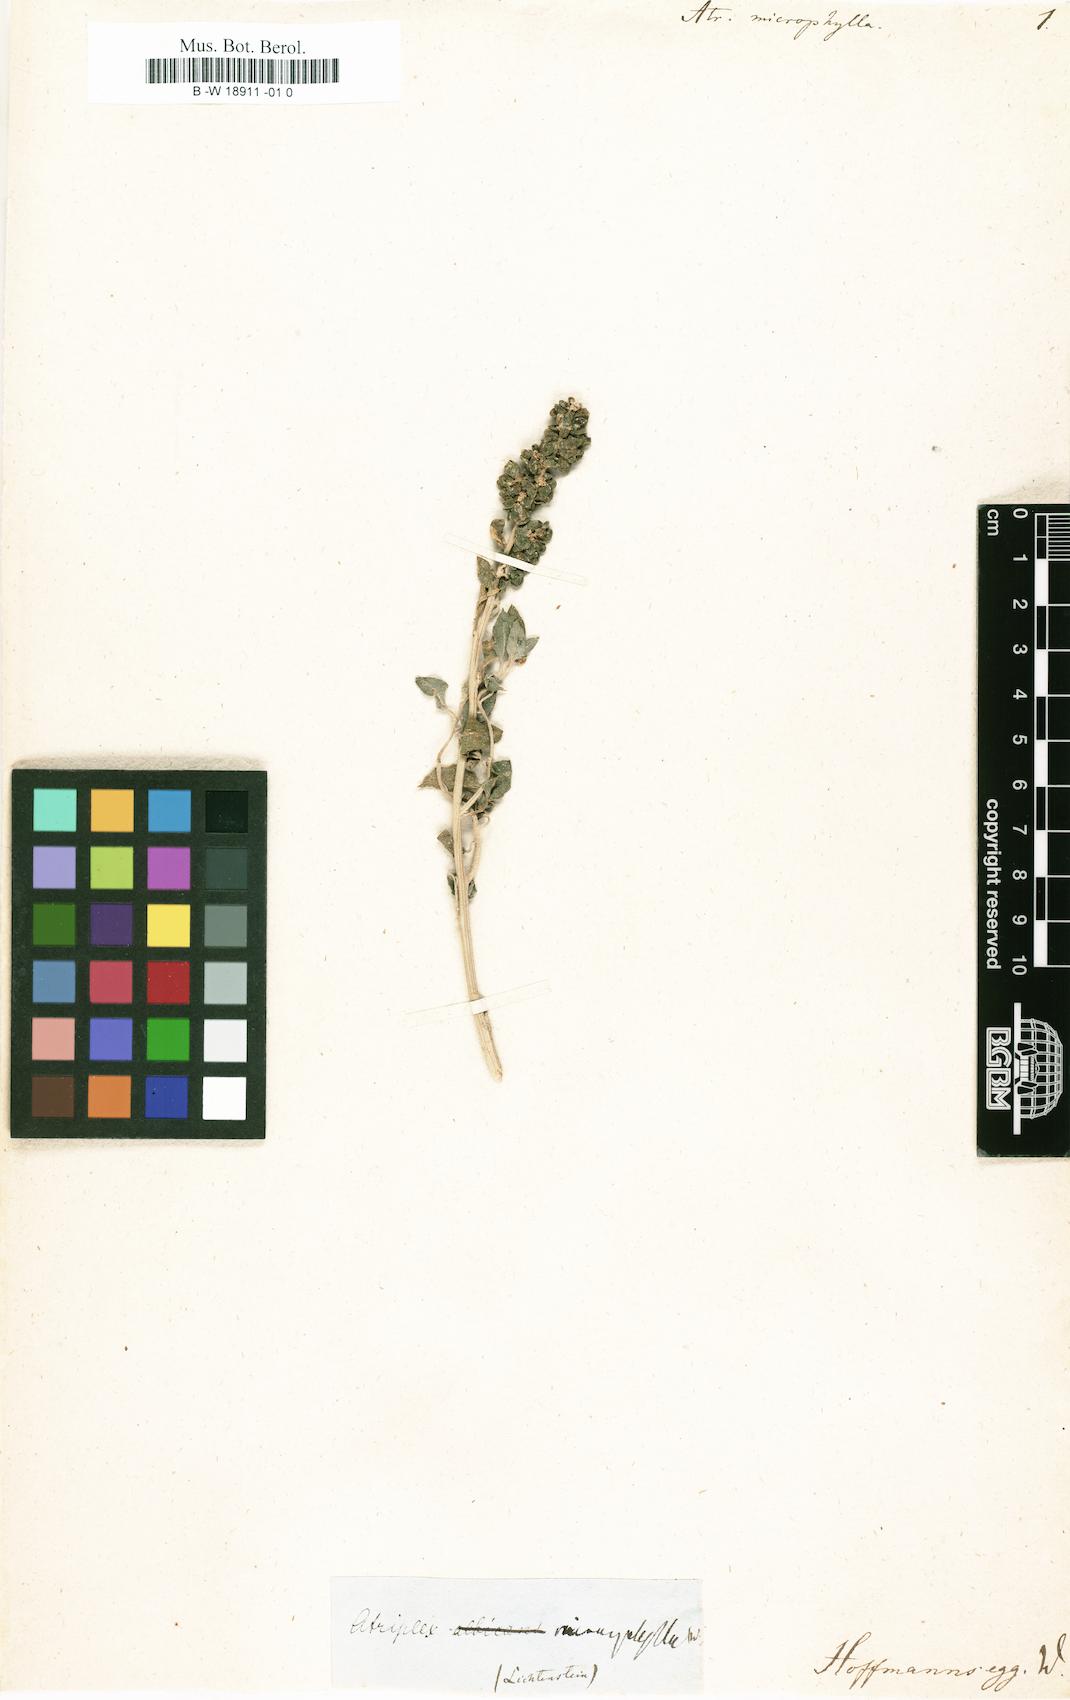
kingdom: Plantae
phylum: Tracheophyta
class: Magnoliopsida
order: Caryophyllales
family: Amaranthaceae
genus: Atriplex
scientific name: Atriplex imbricata
